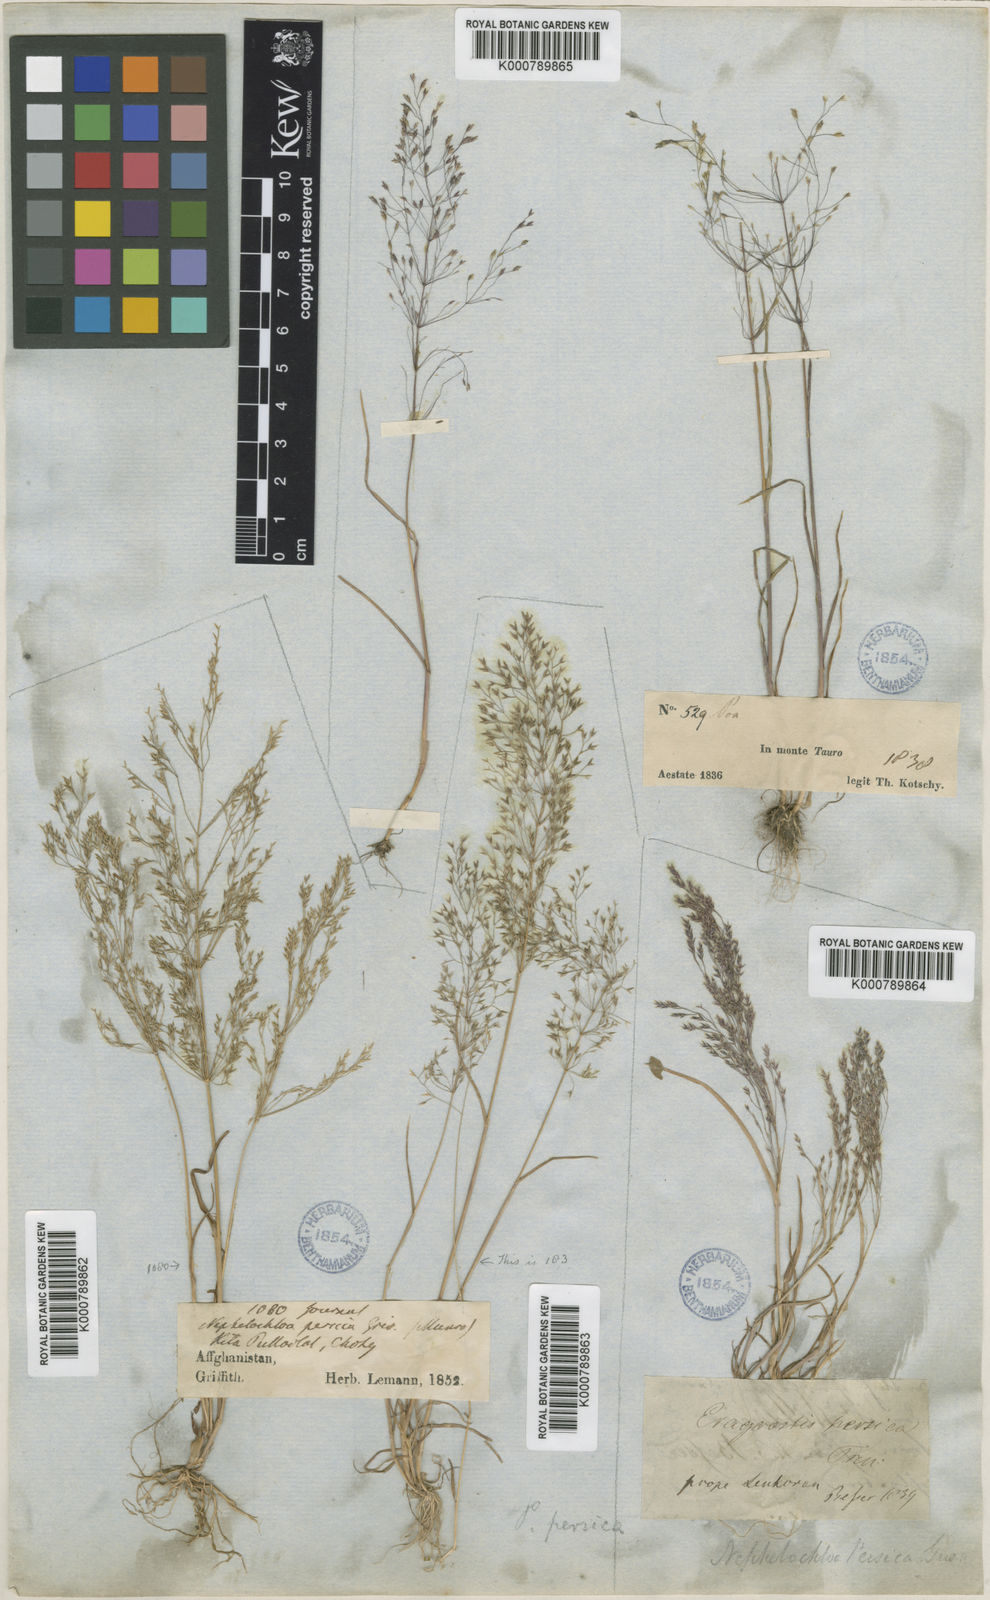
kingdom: Plantae
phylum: Tracheophyta
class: Liliopsida
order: Poales
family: Poaceae
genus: Poa
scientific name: Poa persica
